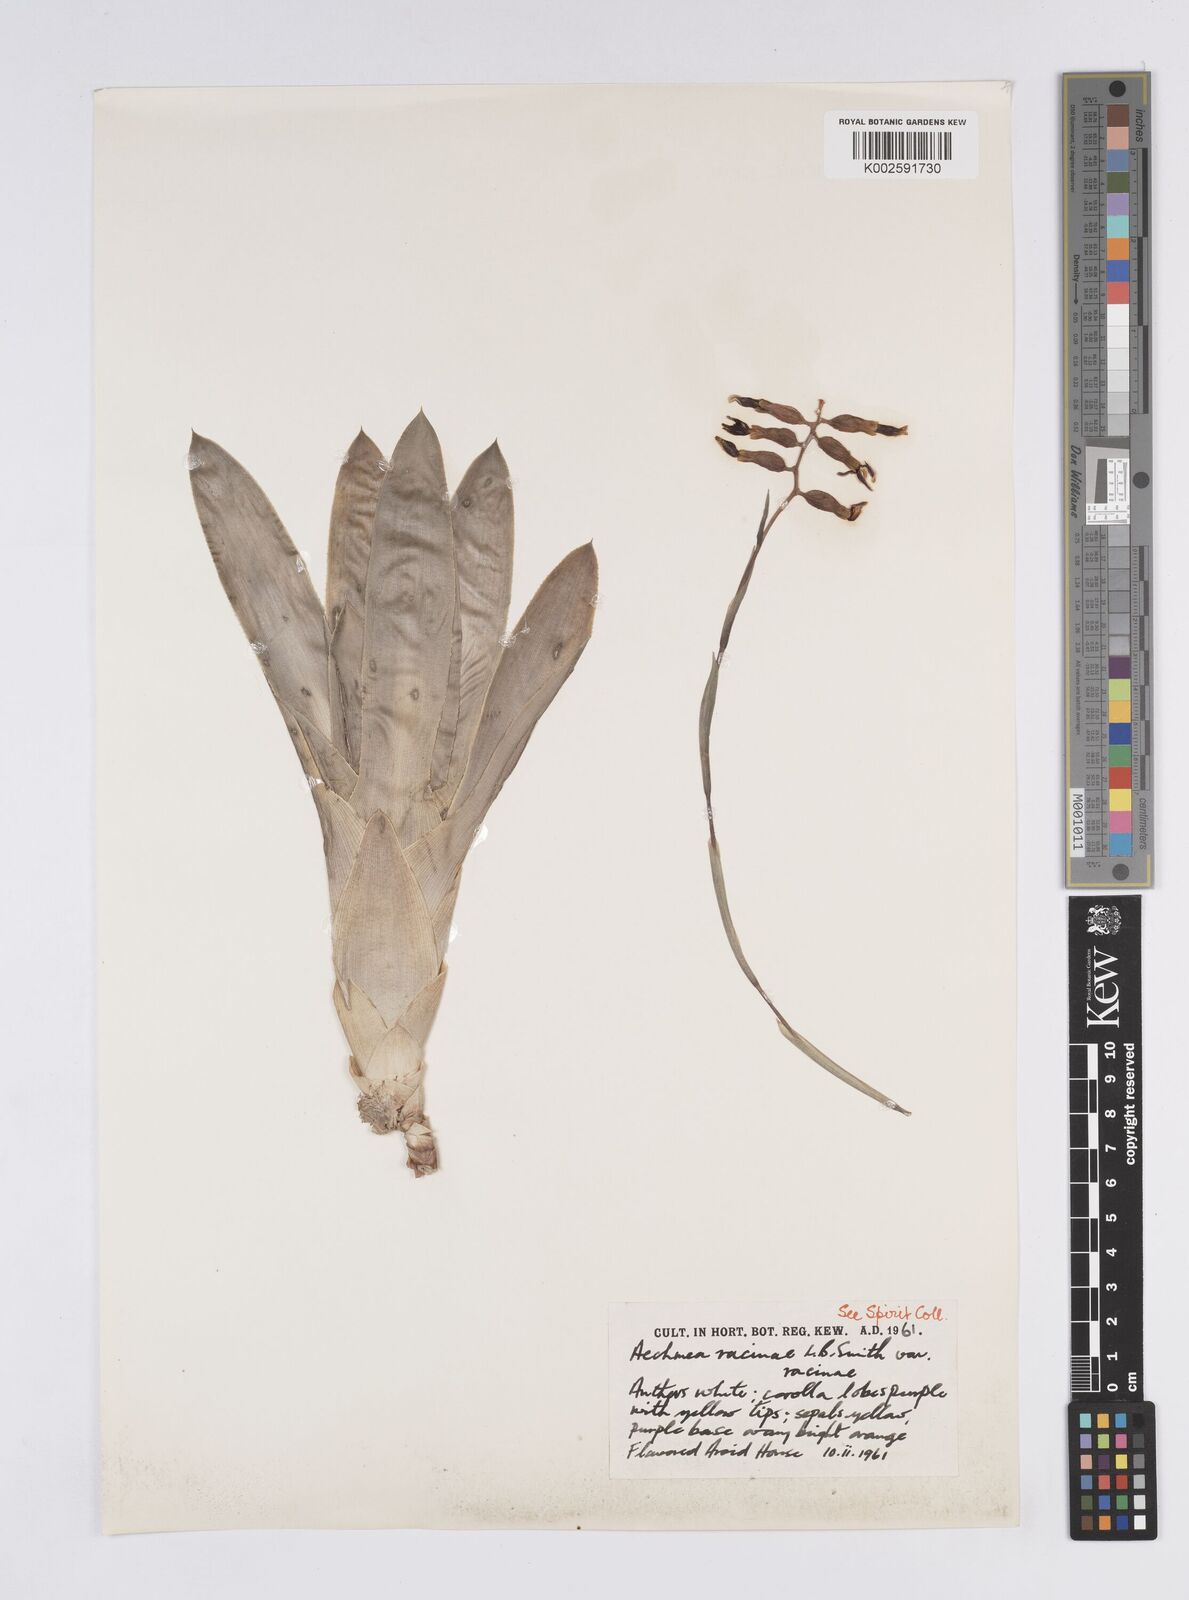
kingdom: Plantae
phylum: Tracheophyta
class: Liliopsida
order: Poales
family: Bromeliaceae
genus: Aechmea
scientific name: Aechmea racinae
